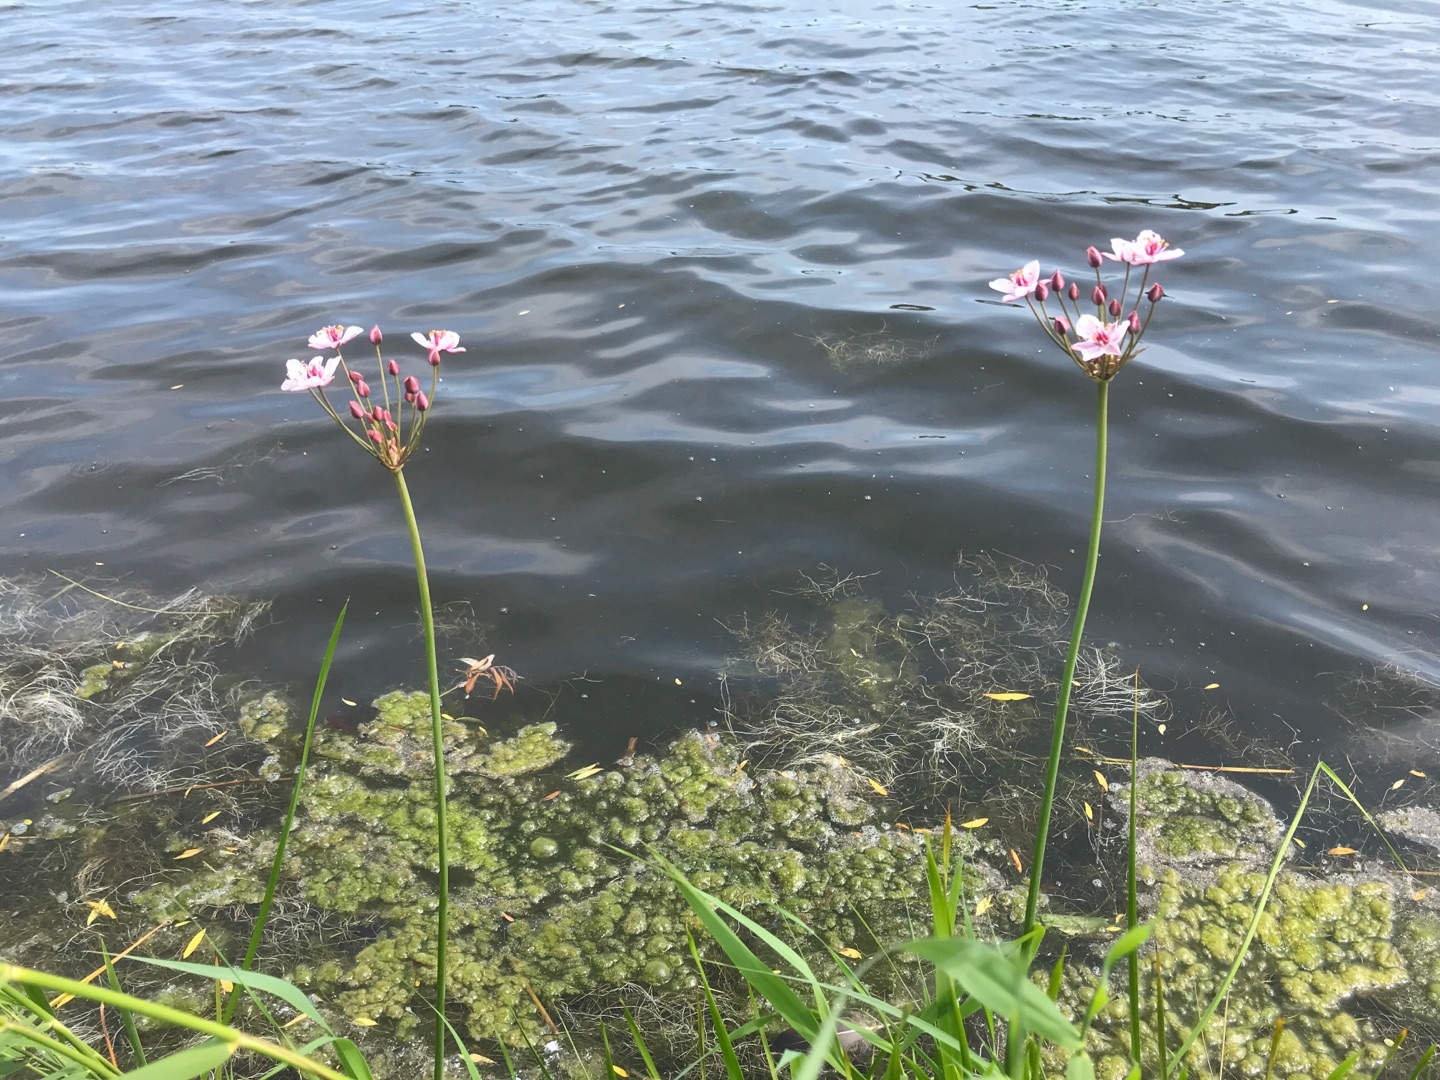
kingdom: Plantae
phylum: Tracheophyta
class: Liliopsida
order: Alismatales
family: Butomaceae
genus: Butomus
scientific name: Butomus umbellatus
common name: Brudelys
